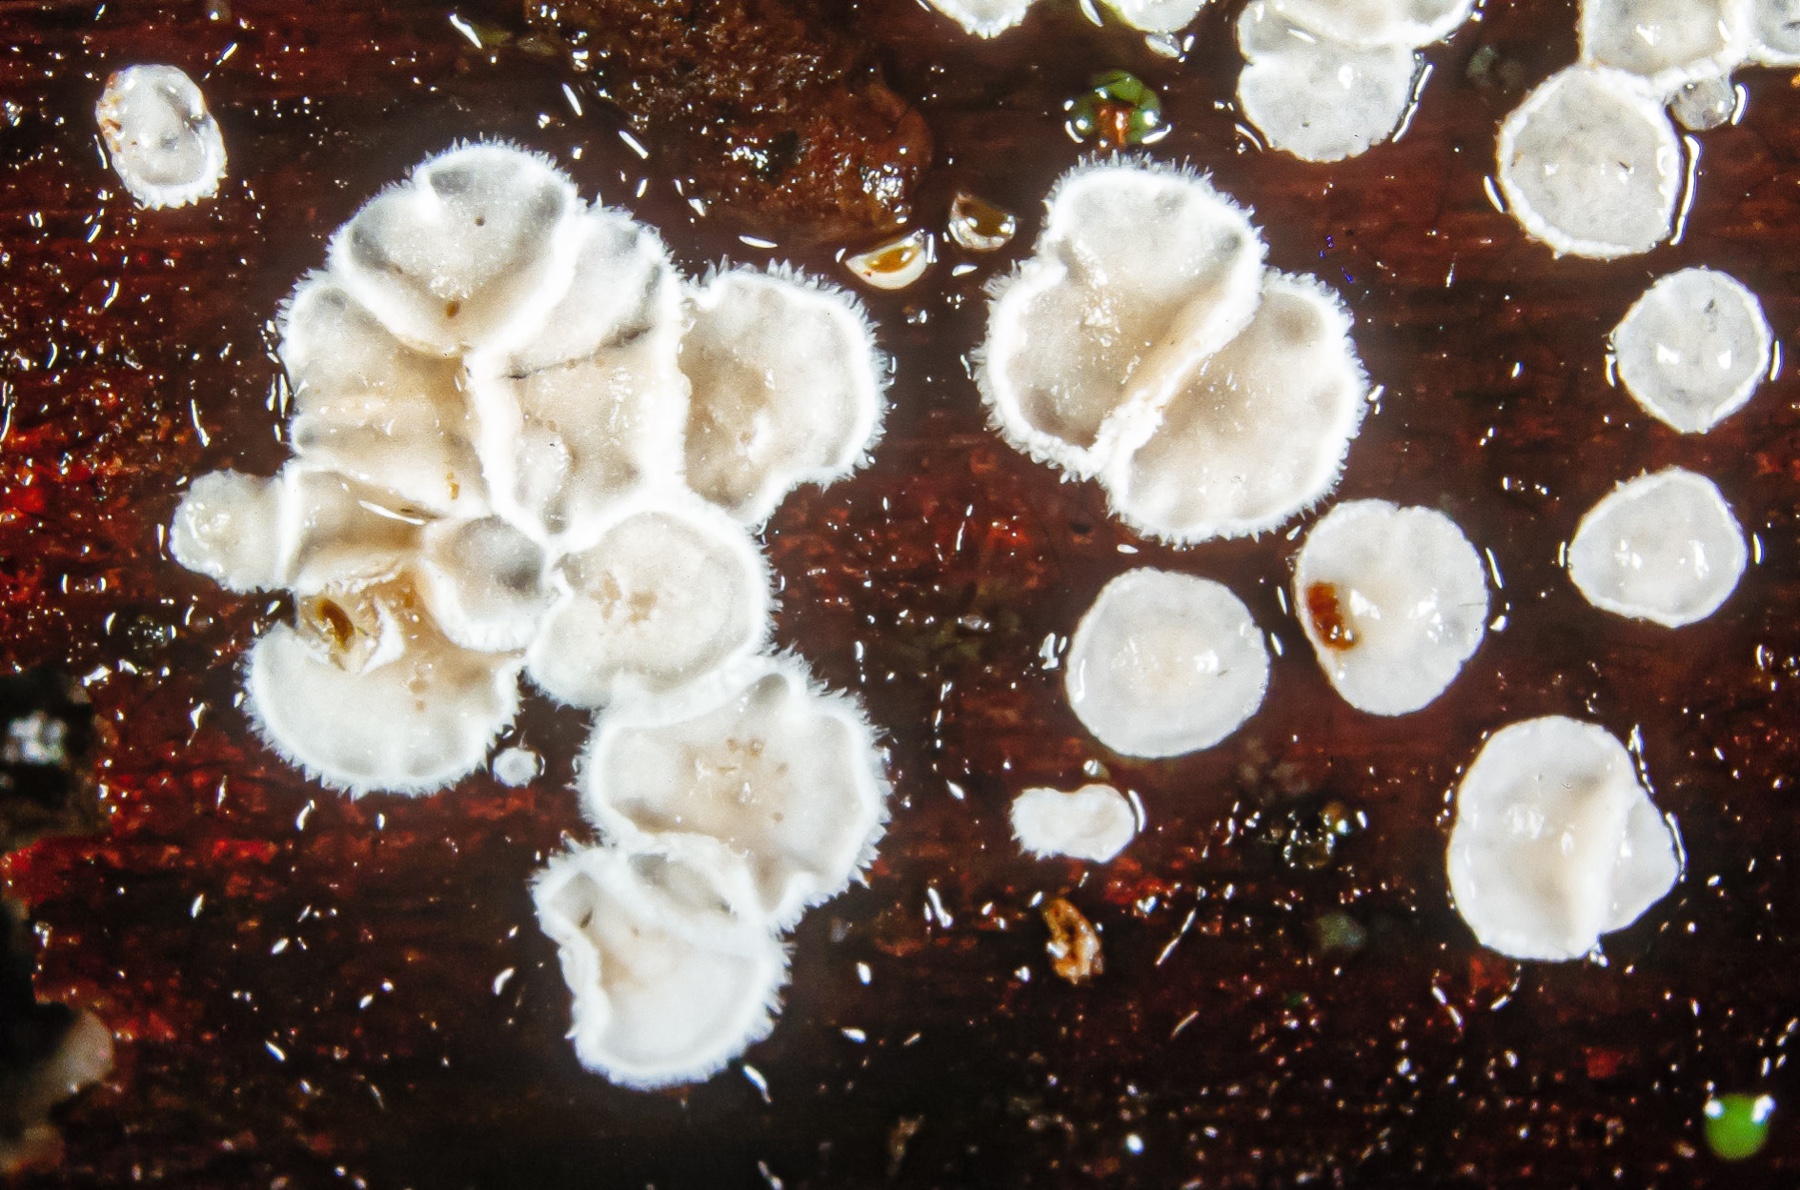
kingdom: Fungi
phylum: Basidiomycota
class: Agaricomycetes
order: Agaricales
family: Niaceae
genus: Flagelloscypha
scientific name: Flagelloscypha
